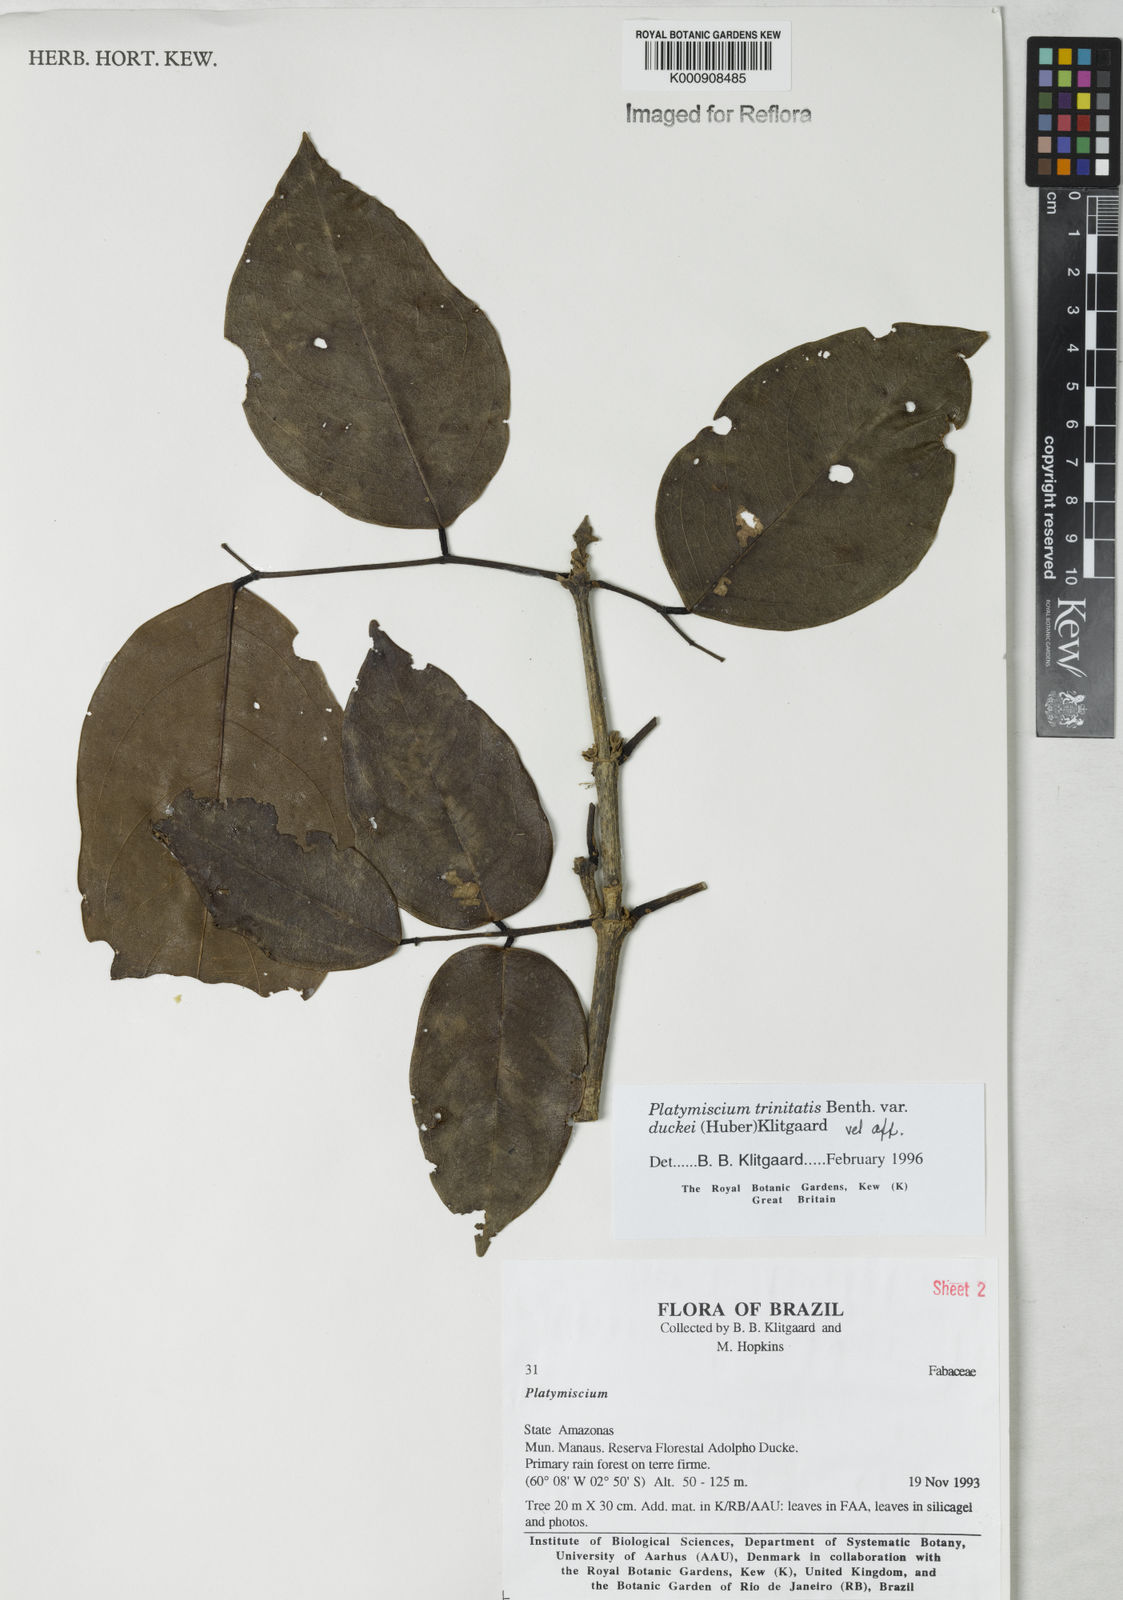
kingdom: Plantae
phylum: Tracheophyta
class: Magnoliopsida
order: Fabales
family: Fabaceae
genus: Platymiscium
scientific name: Platymiscium trinitatis
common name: Trinidad macawood
